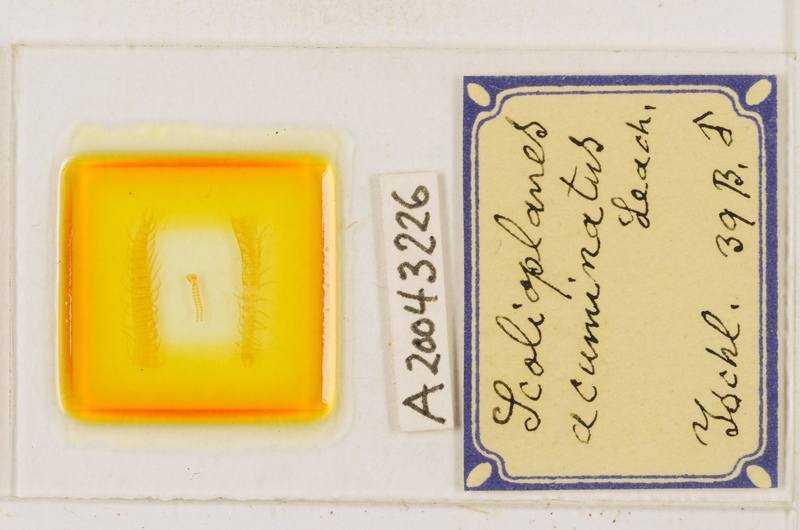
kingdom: Animalia
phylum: Arthropoda
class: Chilopoda
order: Geophilomorpha
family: Linotaeniidae
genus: Strigamia
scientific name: Strigamia acuminata
